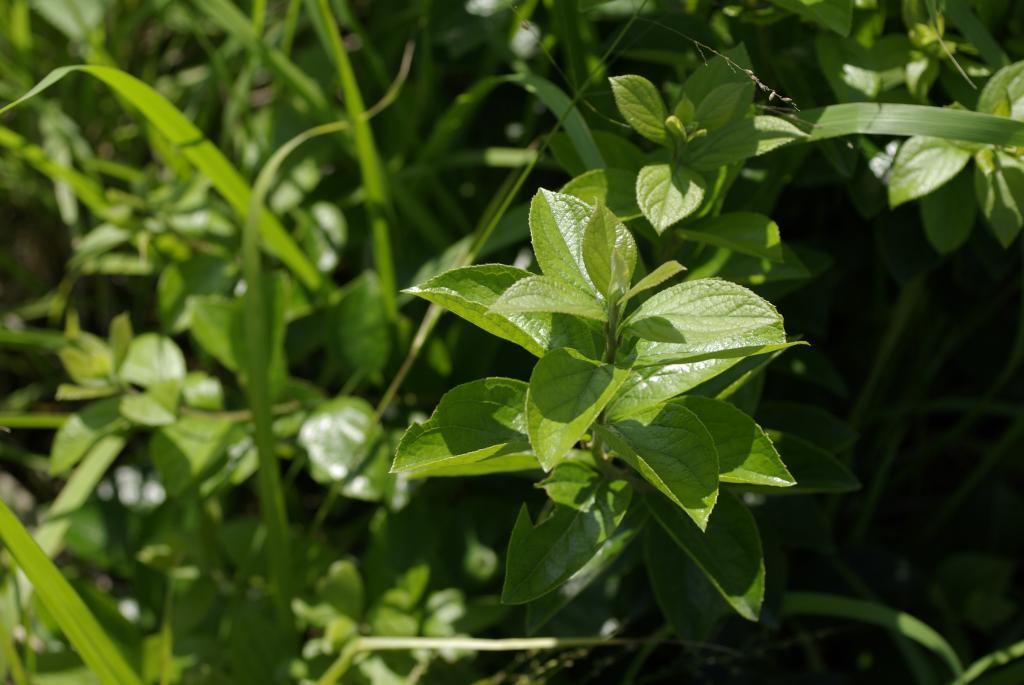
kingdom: Plantae
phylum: Tracheophyta
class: Magnoliopsida
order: Ericales
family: Symplocaceae
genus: Symplocos
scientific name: Symplocos paniculata
